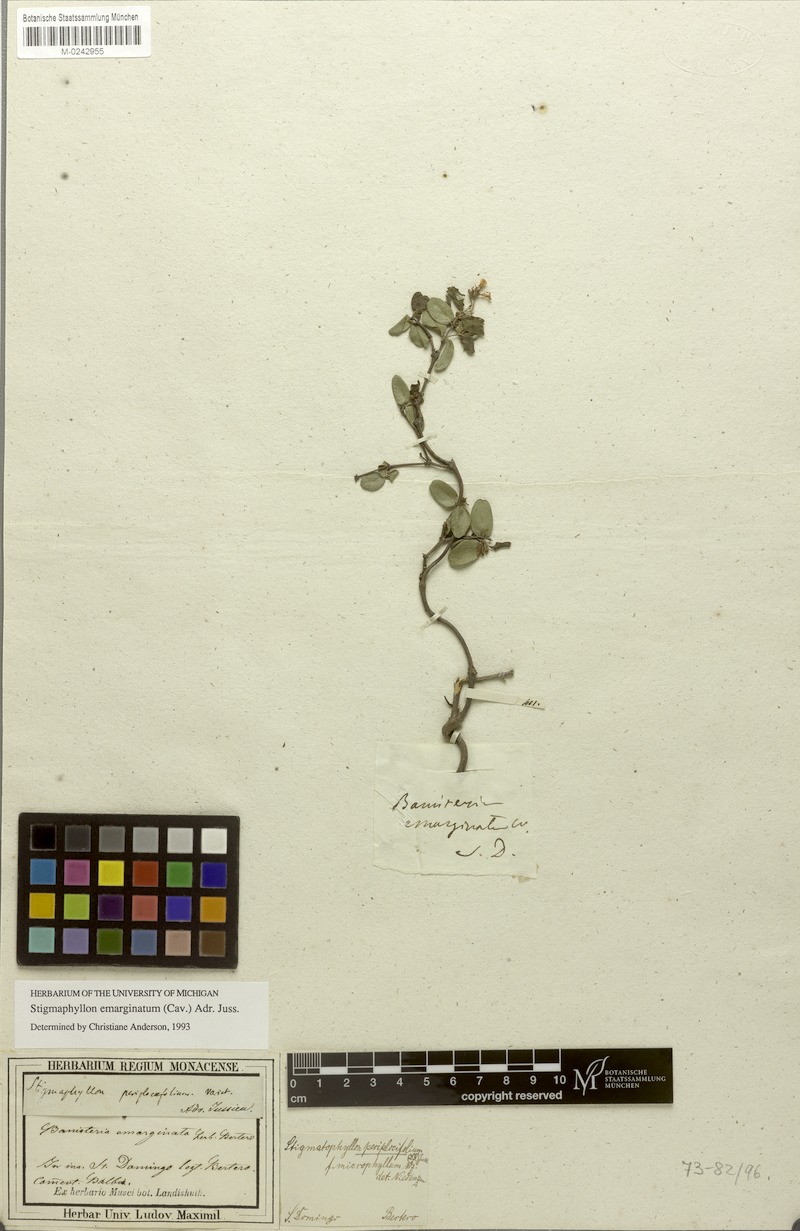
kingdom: Plantae
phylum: Tracheophyta
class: Magnoliopsida
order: Malpighiales
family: Malpighiaceae
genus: Stigmaphyllon
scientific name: Stigmaphyllon emarginatum
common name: Monarch amazonvine
